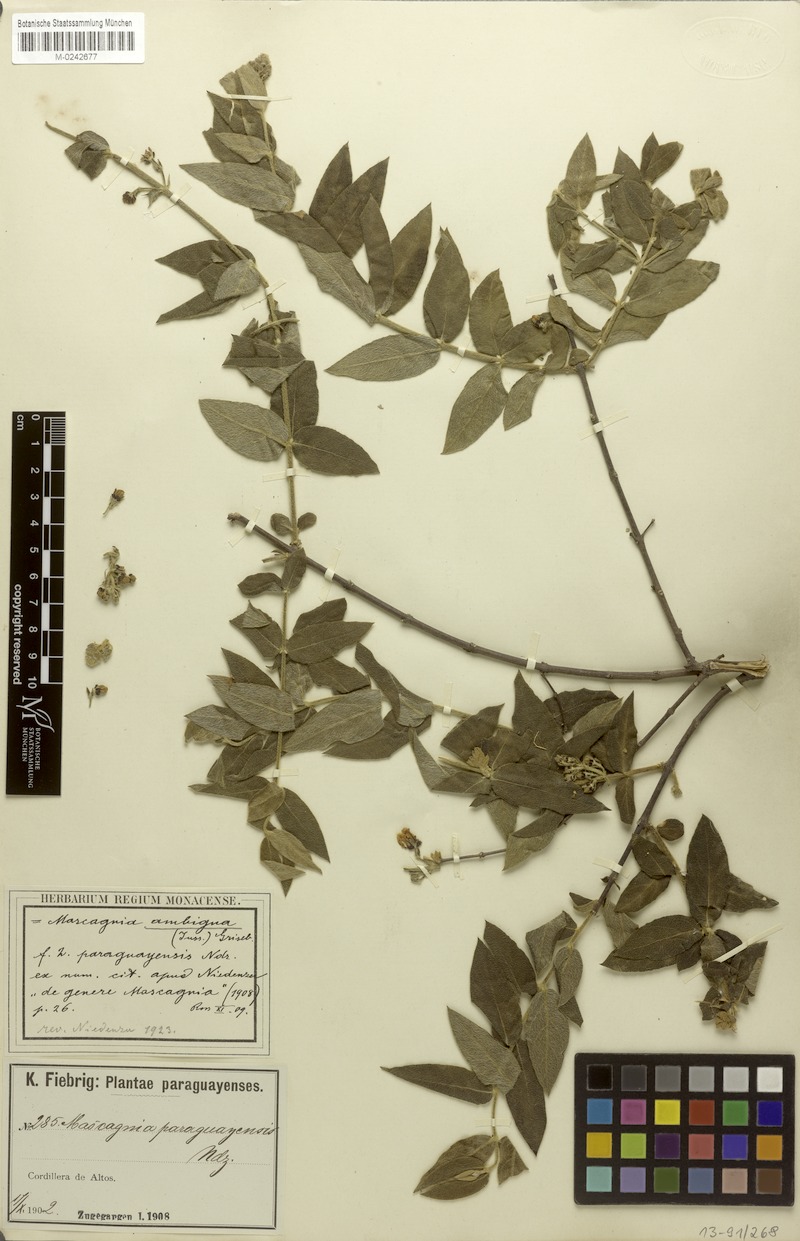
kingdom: Plantae
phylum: Tracheophyta
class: Magnoliopsida
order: Malpighiales
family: Malpighiaceae
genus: Glicophyllum
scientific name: Glicophyllum ambiguum
